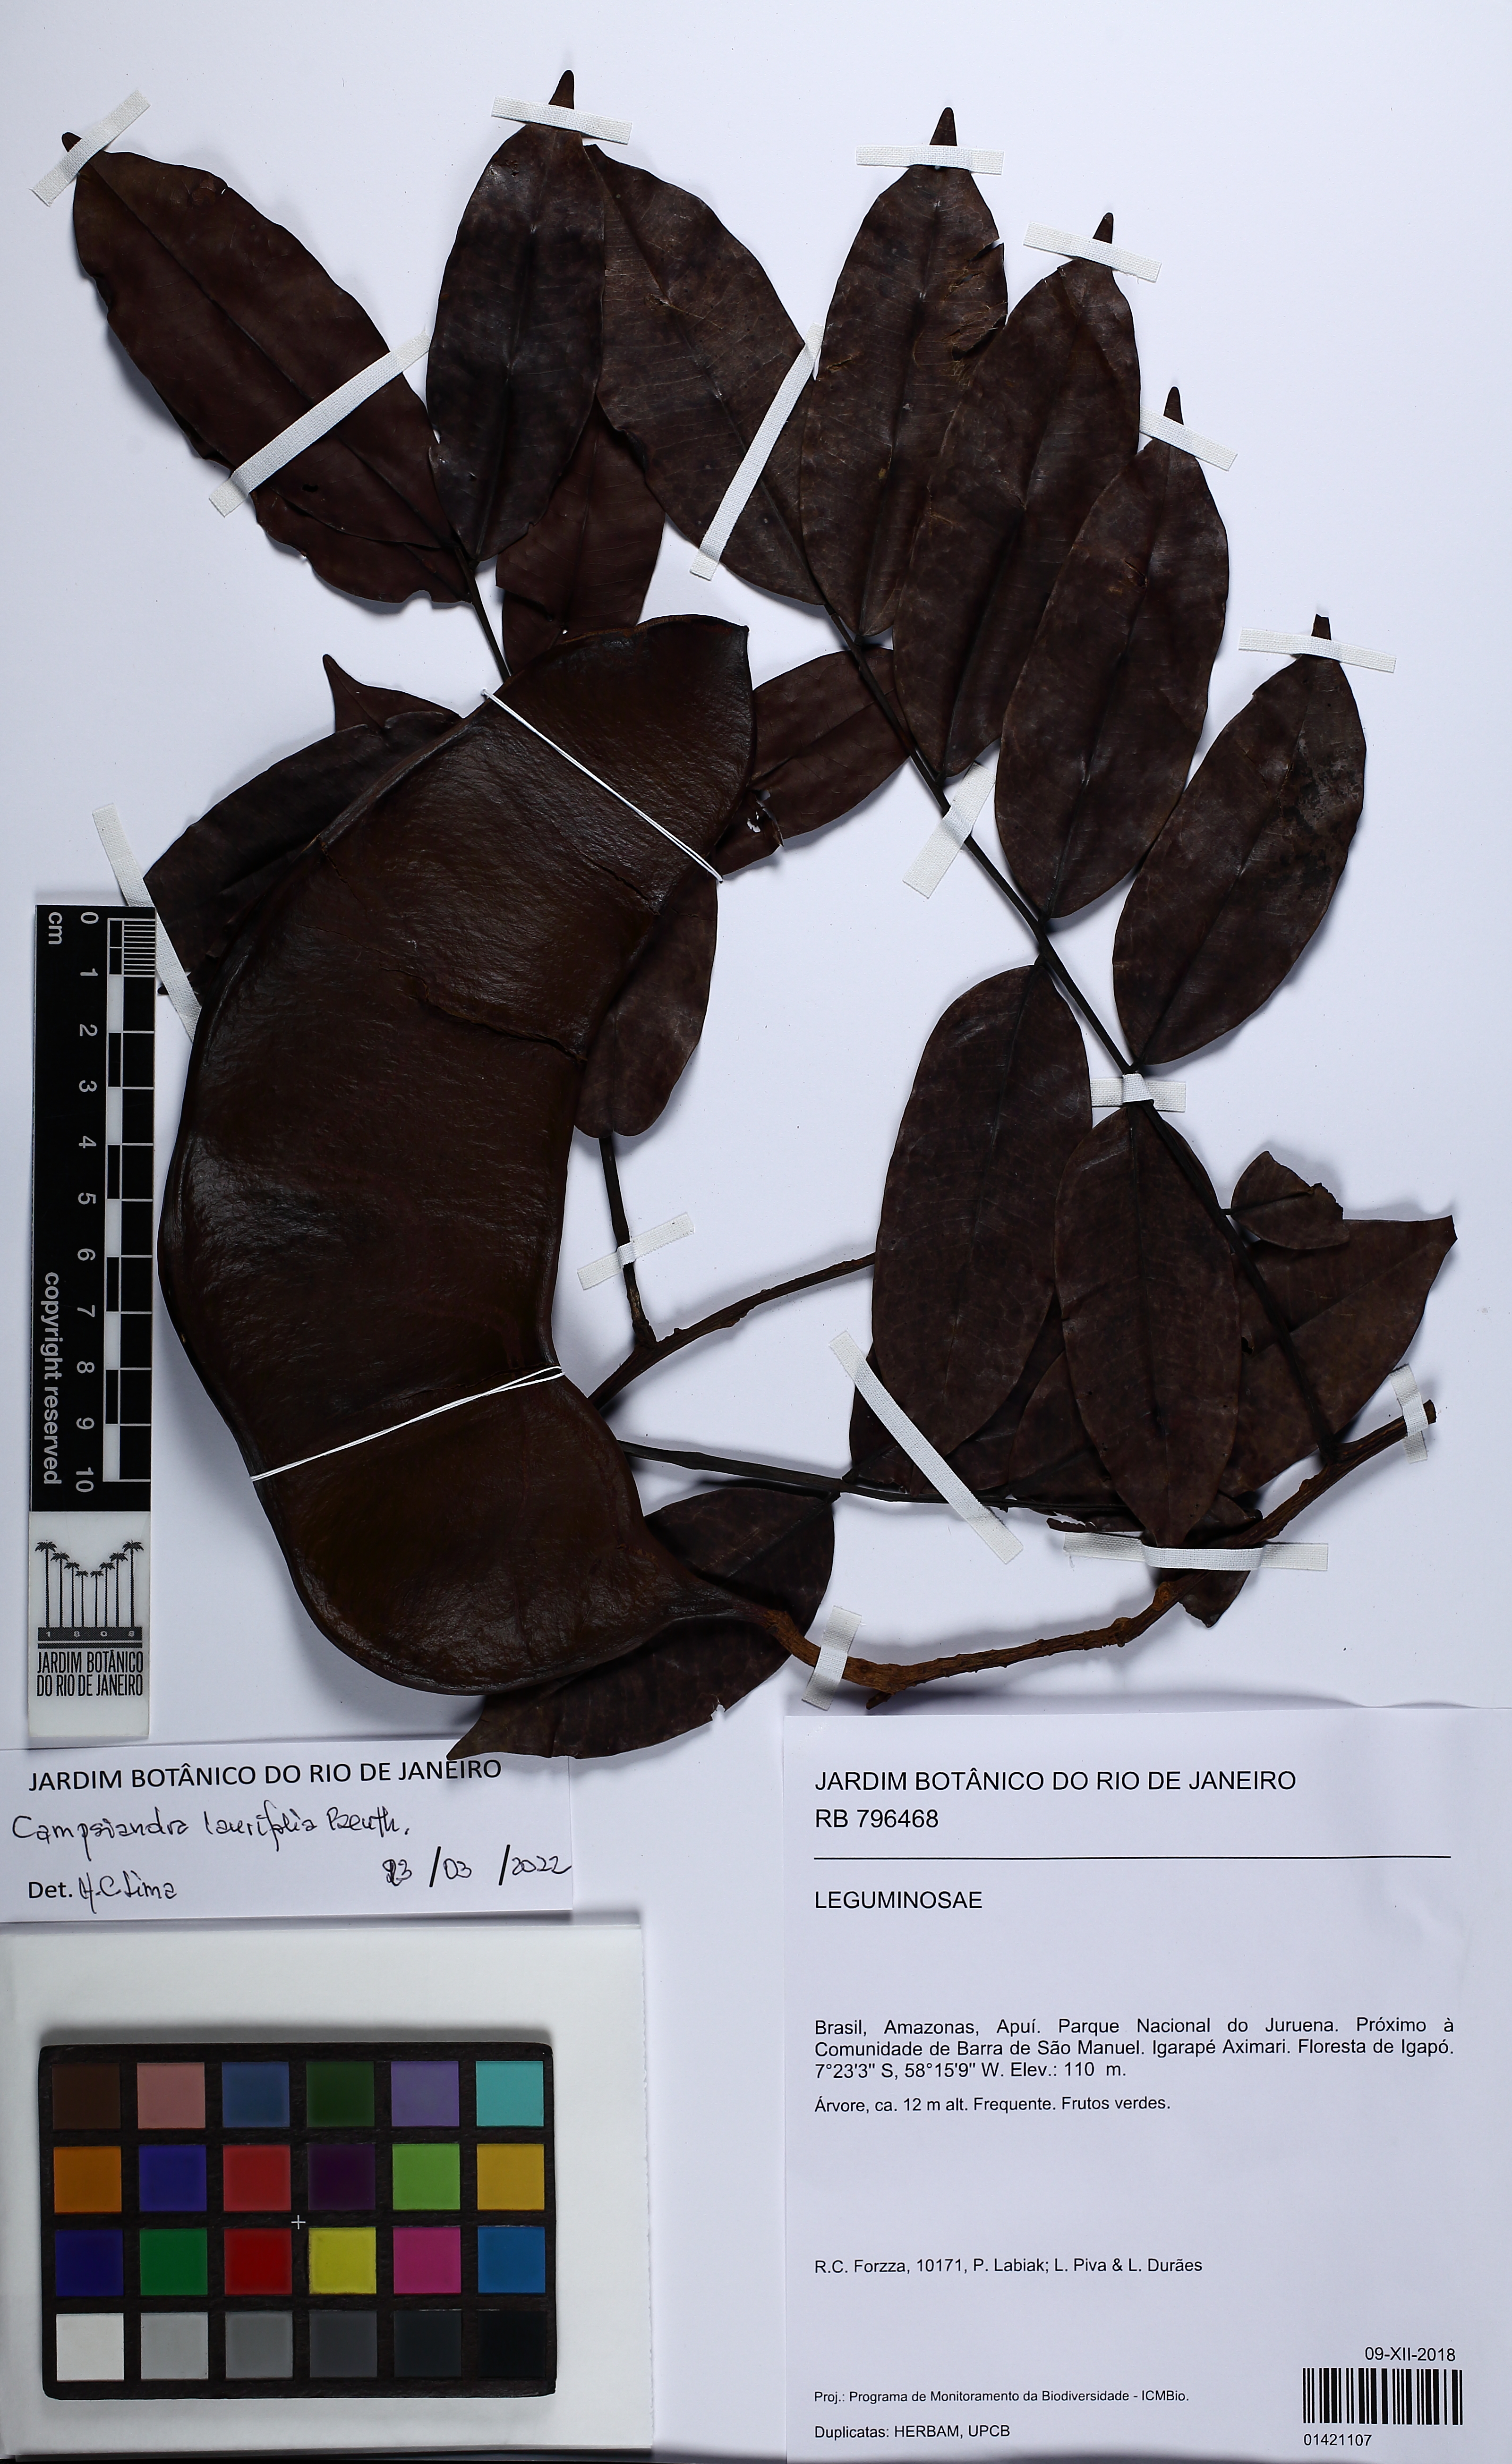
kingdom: Plantae
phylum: Tracheophyta
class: Magnoliopsida
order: Fabales
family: Fabaceae
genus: Campsiandra
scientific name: Campsiandra laurifolia
